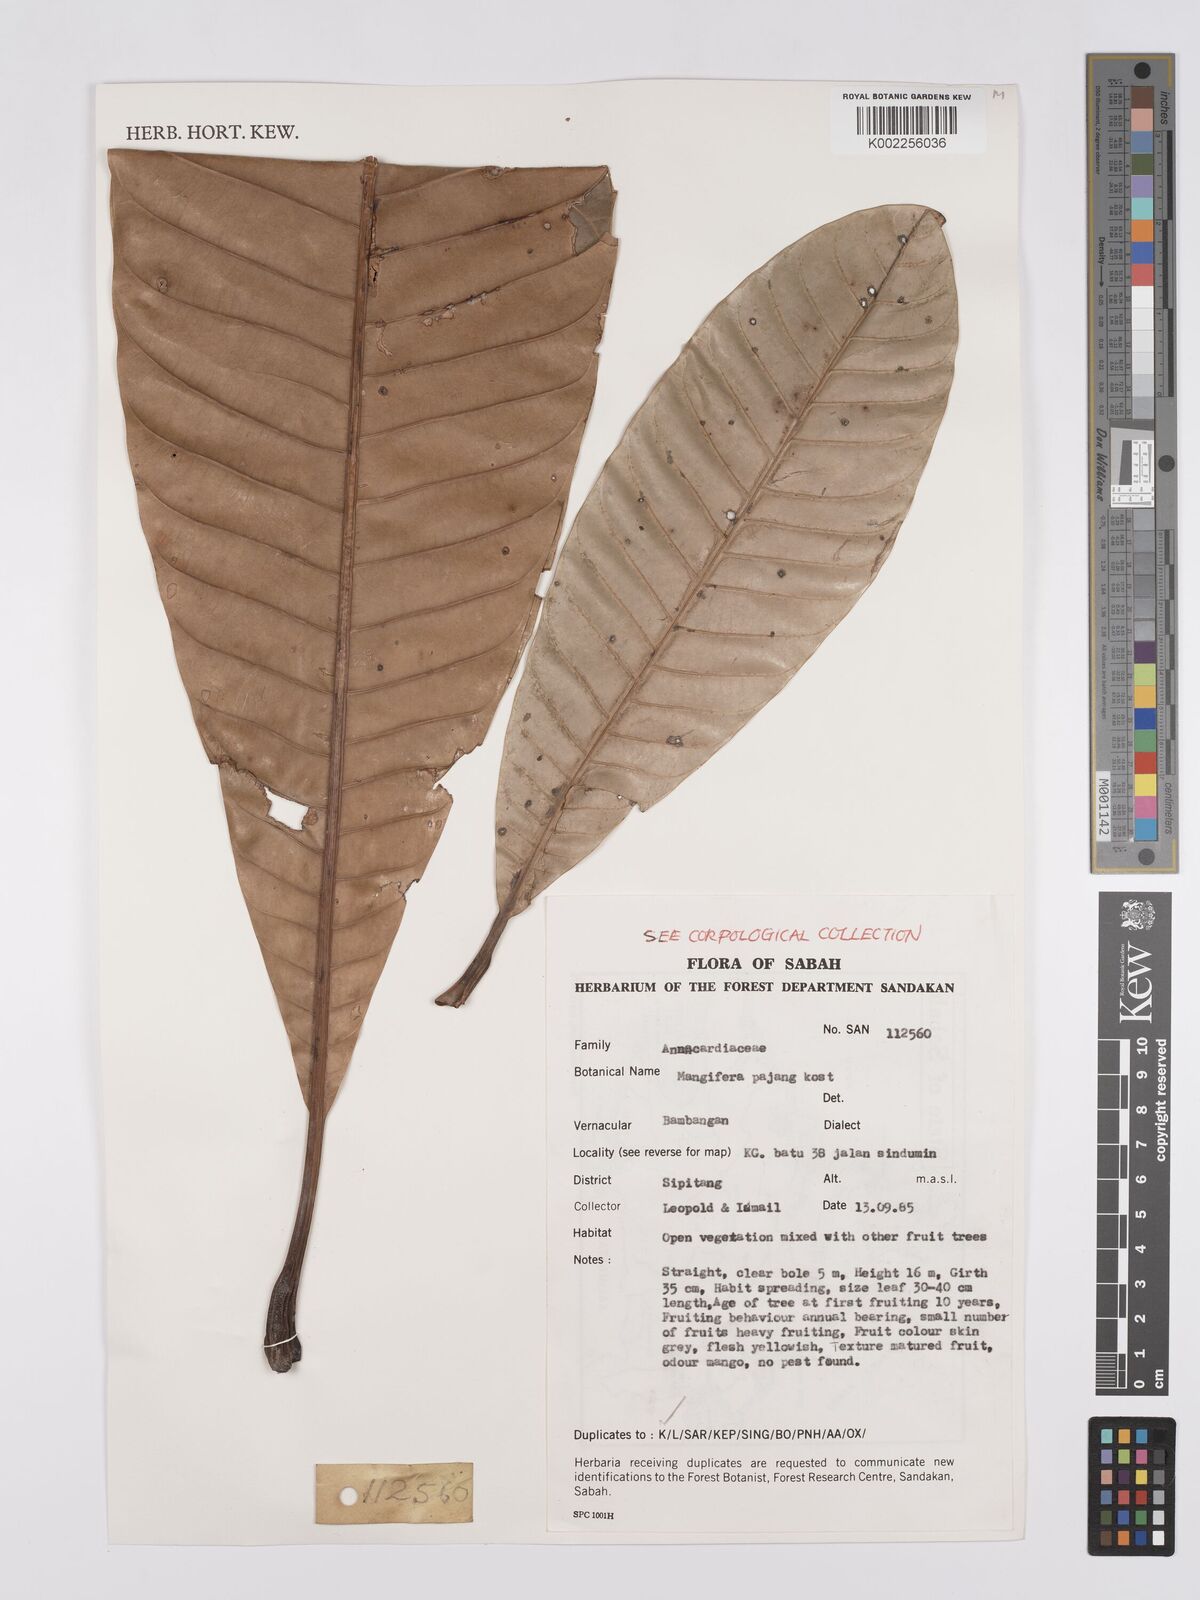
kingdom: Plantae
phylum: Tracheophyta
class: Magnoliopsida
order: Sapindales
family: Anacardiaceae
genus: Mangifera
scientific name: Mangifera pajang
